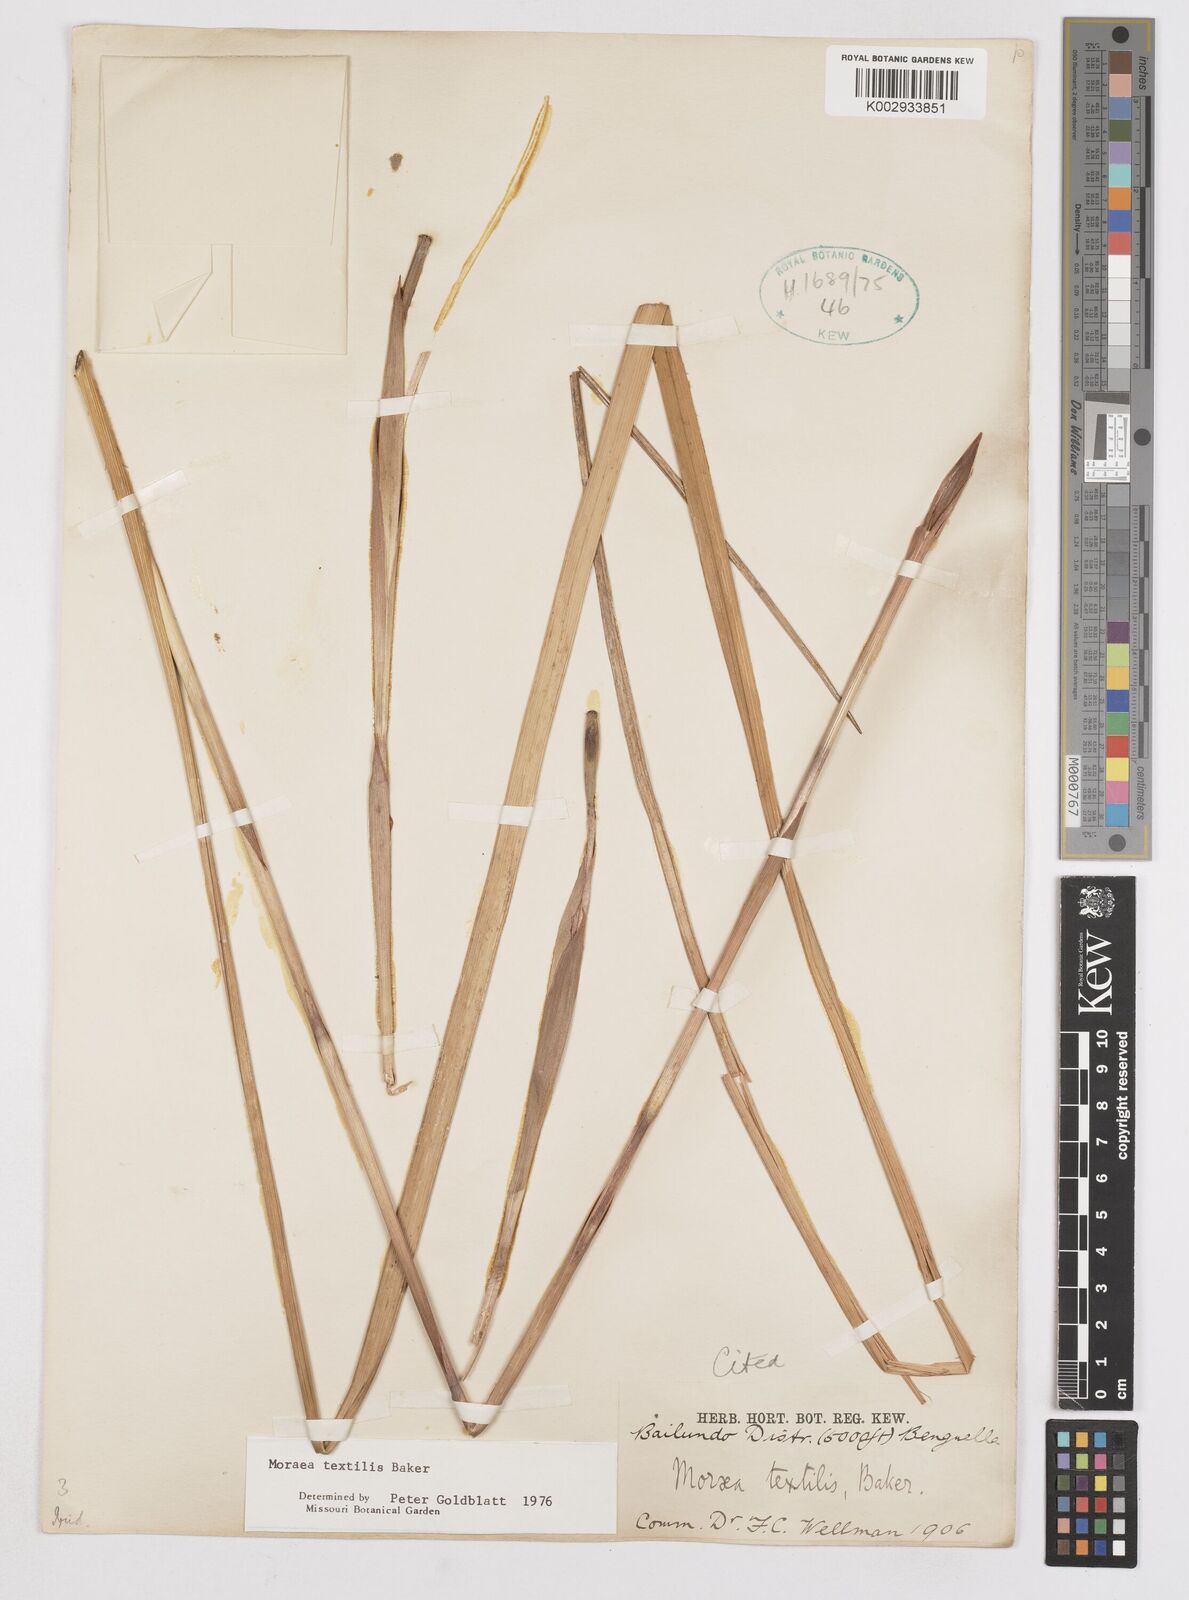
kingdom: Plantae
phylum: Tracheophyta
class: Liliopsida
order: Asparagales
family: Iridaceae
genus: Moraea
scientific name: Moraea textilis
